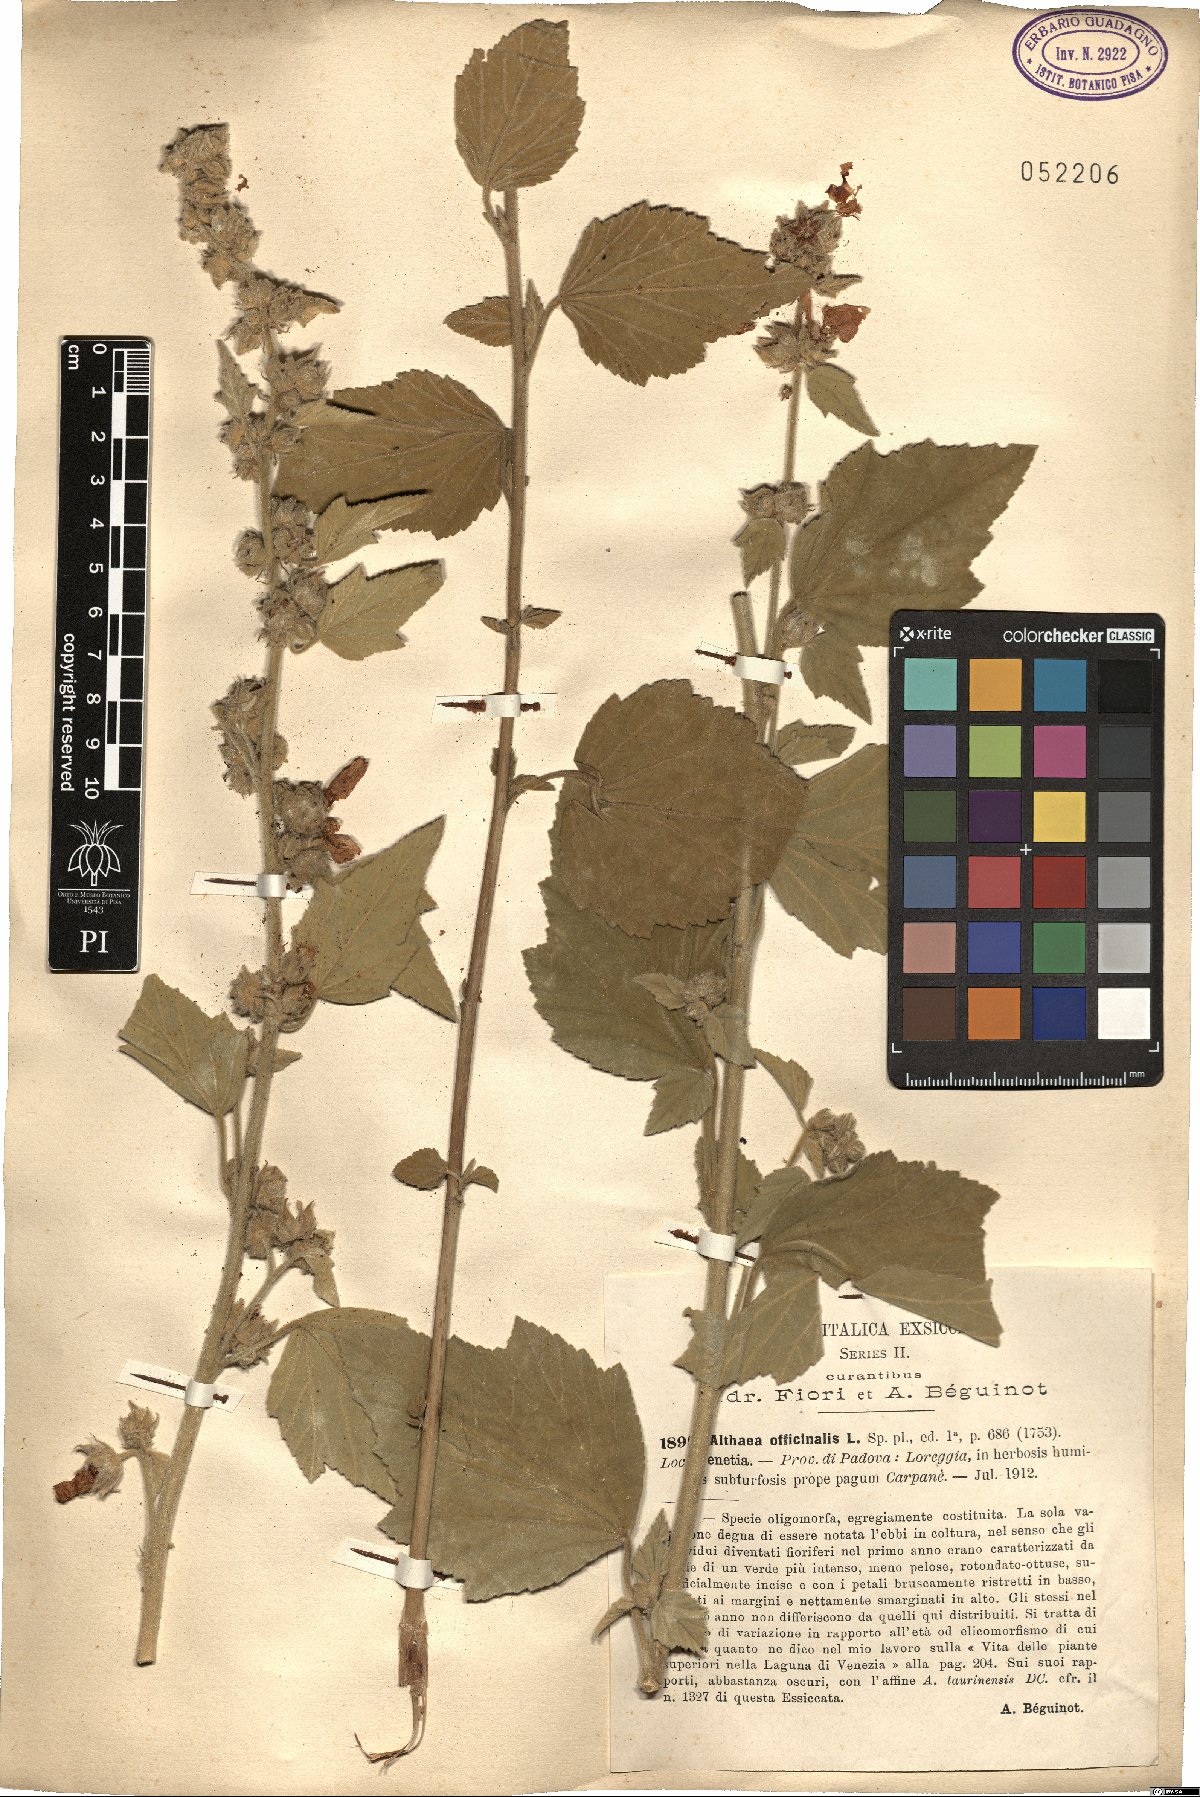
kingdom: Plantae
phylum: Tracheophyta
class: Magnoliopsida
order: Malvales
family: Malvaceae
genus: Althaea
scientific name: Althaea officinalis
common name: Marsh-mallow
